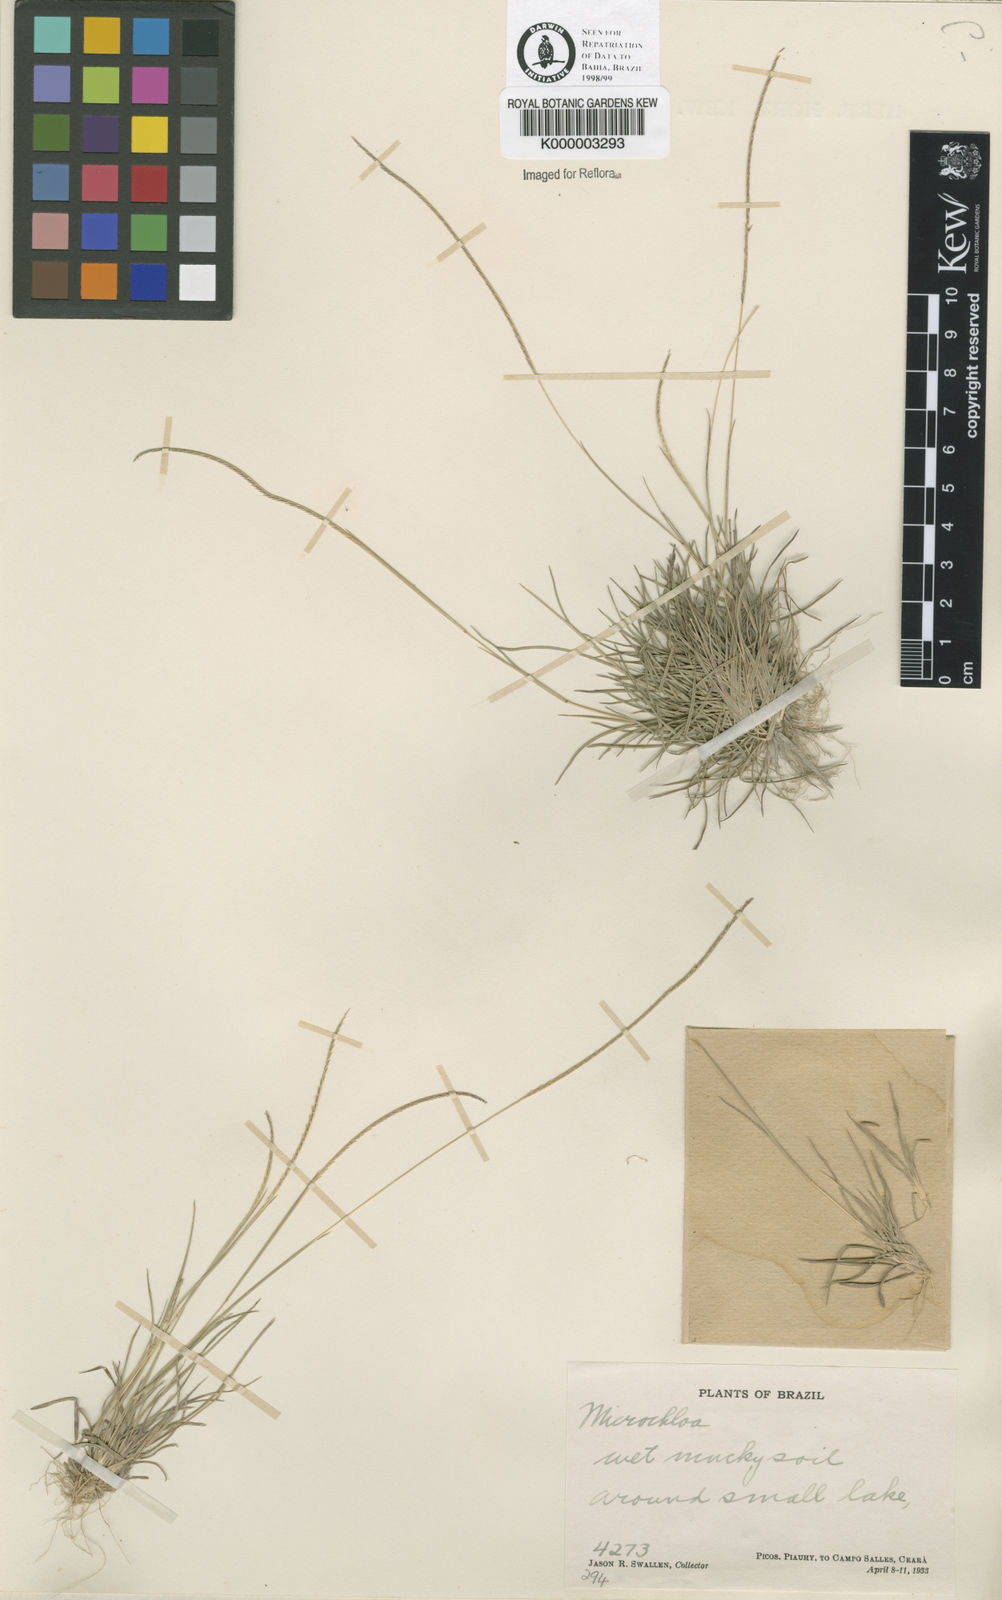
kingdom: Plantae
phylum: Tracheophyta
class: Liliopsida
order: Poales
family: Poaceae
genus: Microchloa
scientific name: Microchloa kunthii
